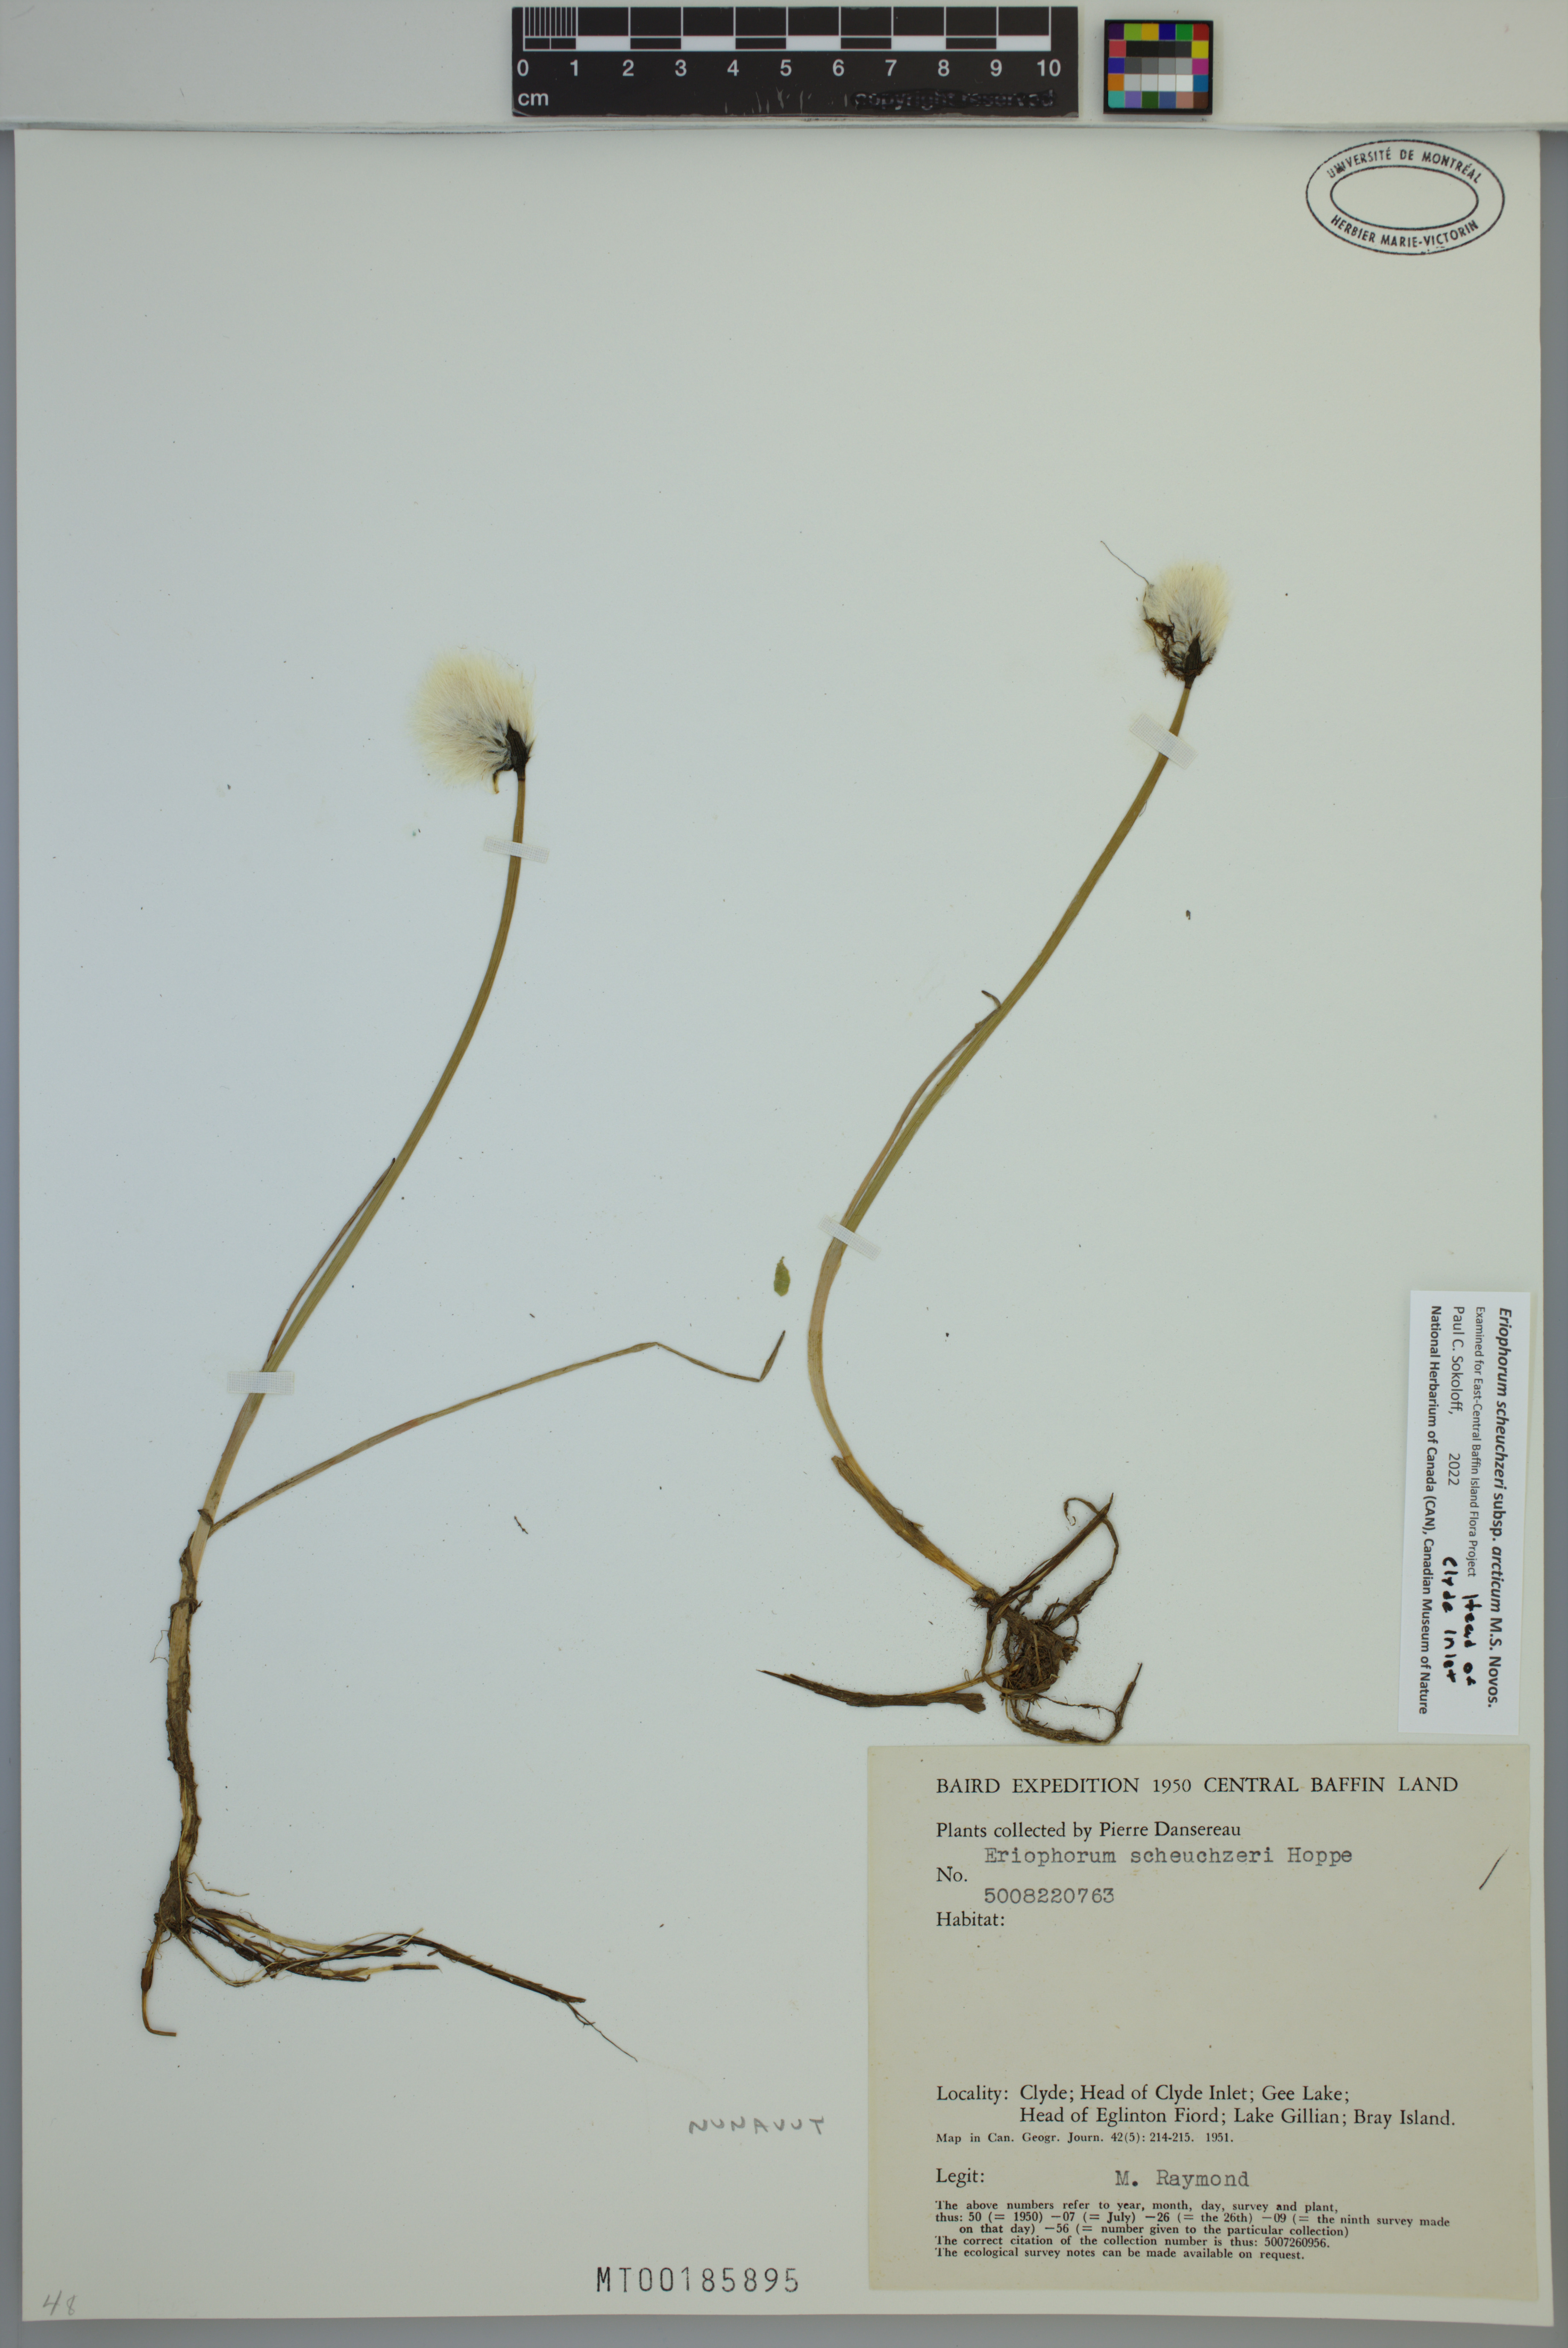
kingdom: Plantae
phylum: Tracheophyta
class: Liliopsida
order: Poales
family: Cyperaceae
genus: Eriophorum
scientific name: Eriophorum scheuchzeri
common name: Scheuchzer's cottongrass
